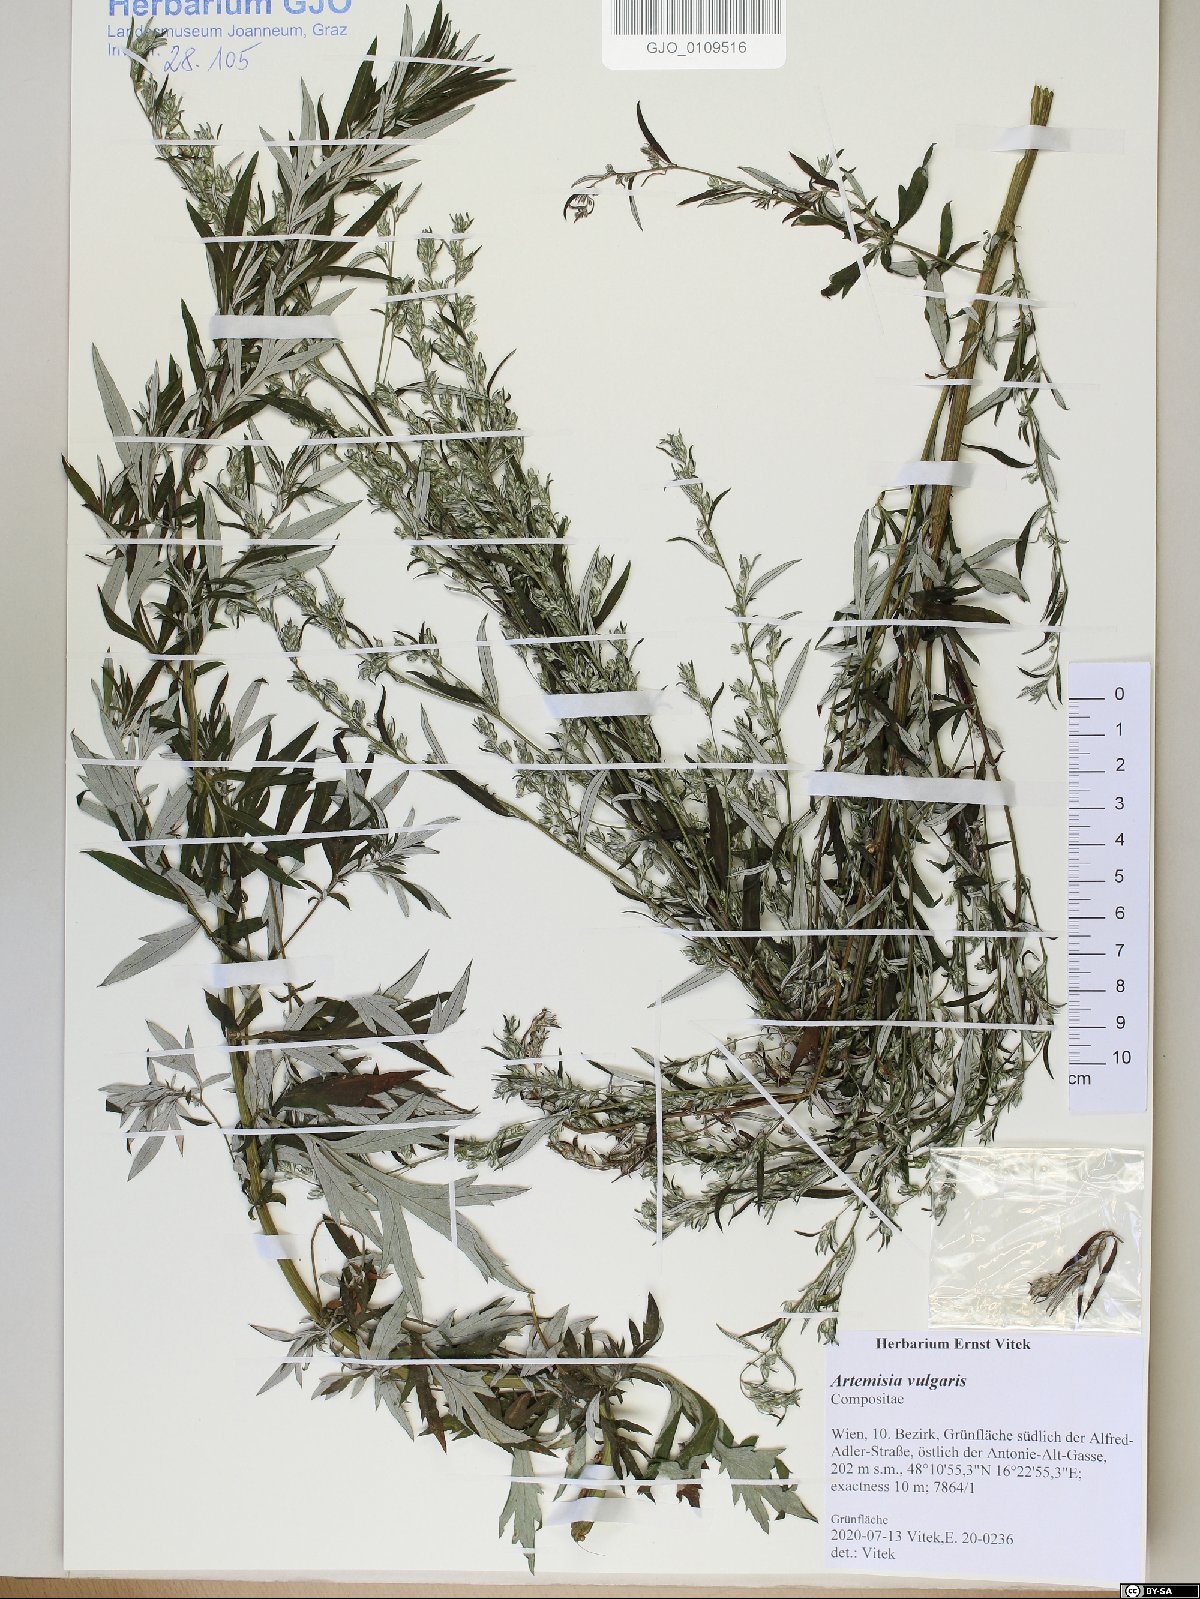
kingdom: Plantae
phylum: Tracheophyta
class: Magnoliopsida
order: Asterales
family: Asteraceae
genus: Artemisia
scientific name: Artemisia vulgaris
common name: Mugwort
